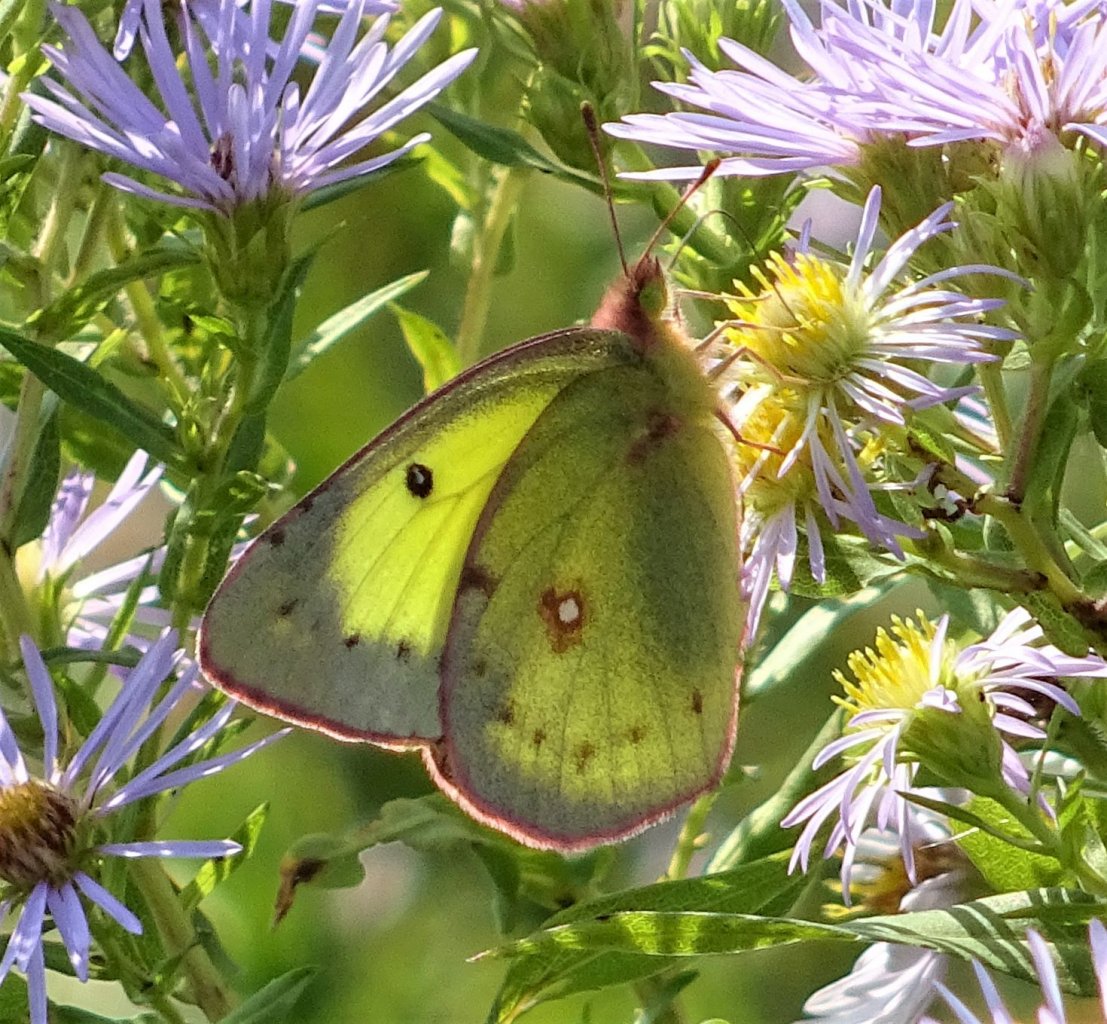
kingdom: Animalia
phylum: Arthropoda
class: Insecta
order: Lepidoptera
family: Pieridae
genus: Colias
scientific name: Colias philodice
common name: Clouded Sulphur
